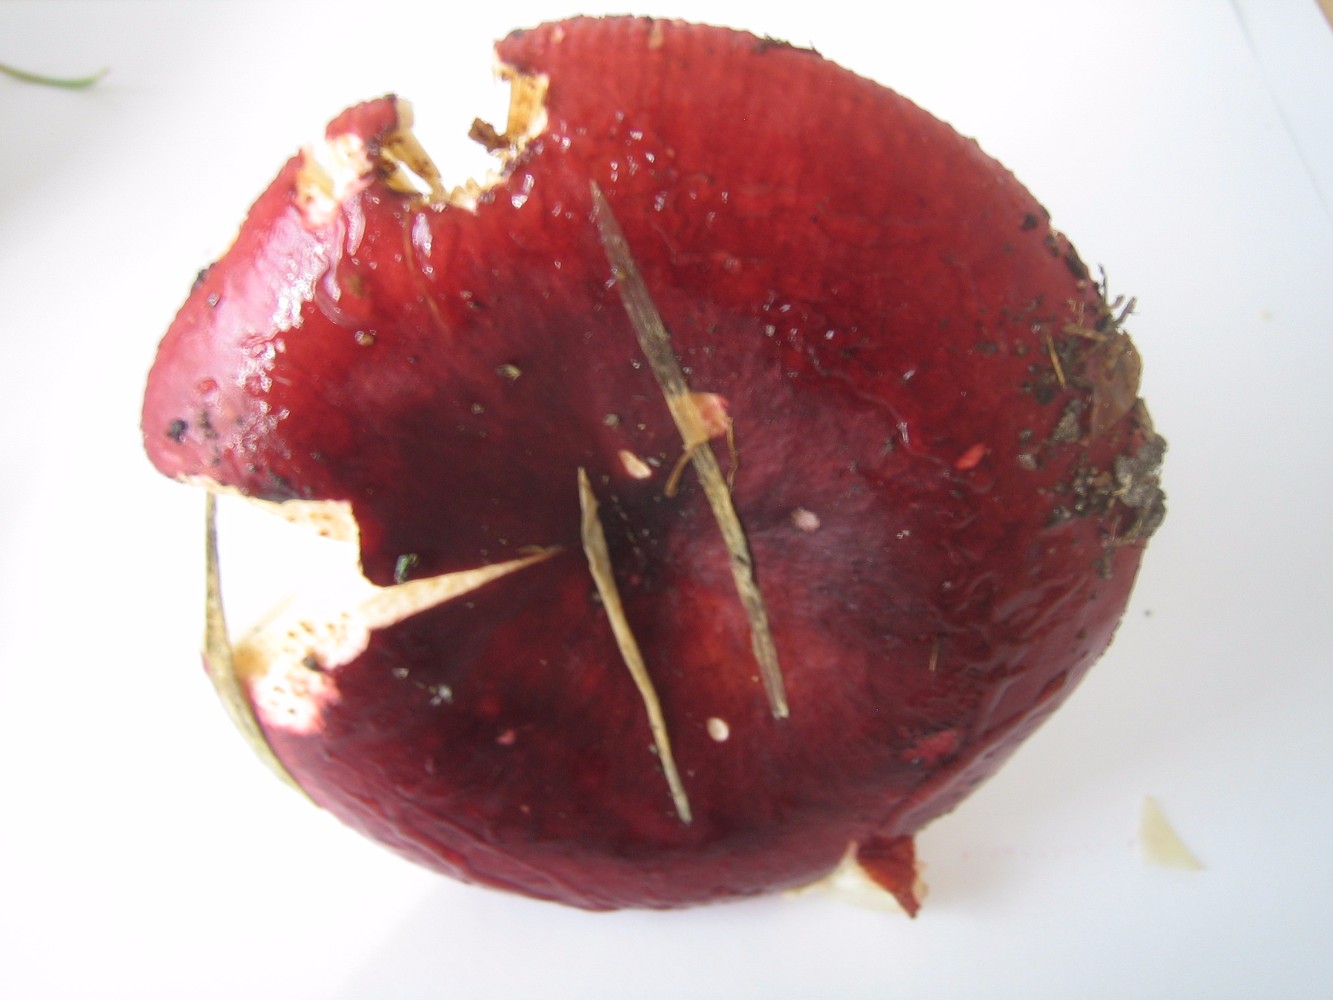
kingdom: Fungi
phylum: Basidiomycota
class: Agaricomycetes
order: Russulales
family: Russulaceae
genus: Russula
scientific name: Russula xerampelina
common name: hummer-skørhat
